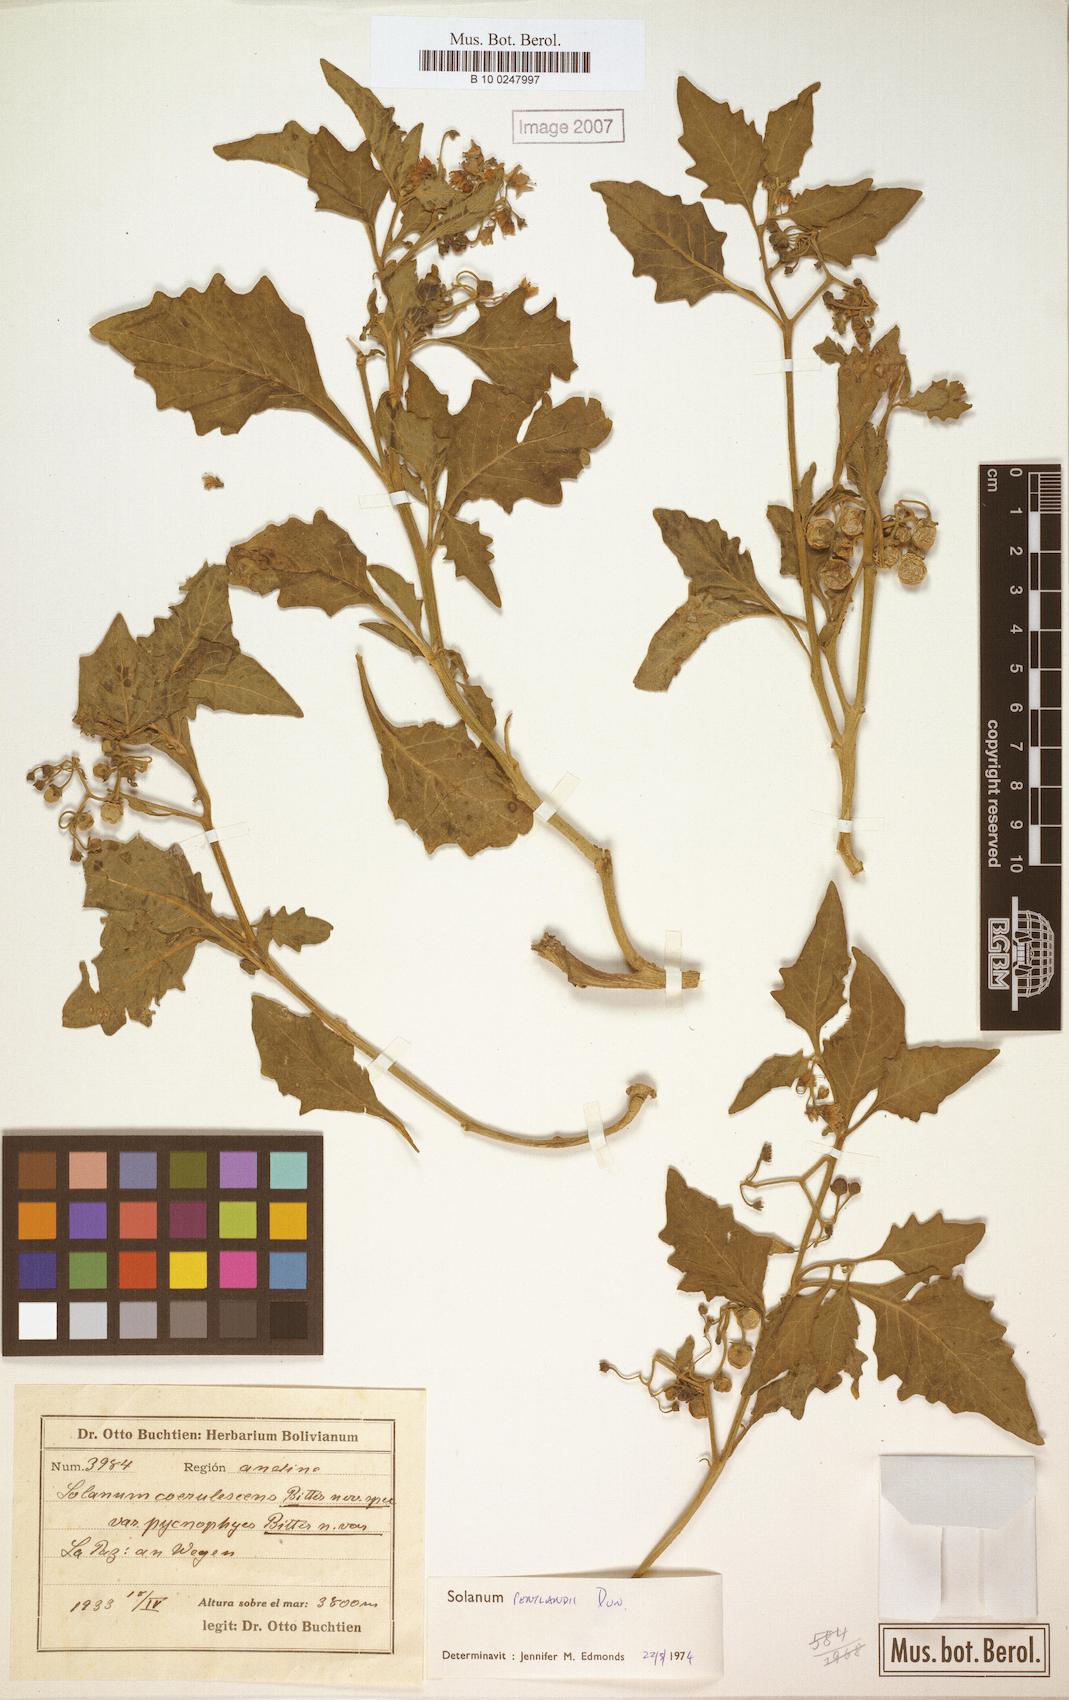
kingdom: Plantae
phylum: Tracheophyta
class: Magnoliopsida
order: Solanales
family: Solanaceae
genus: Solanum
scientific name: Solanum pentlandii
